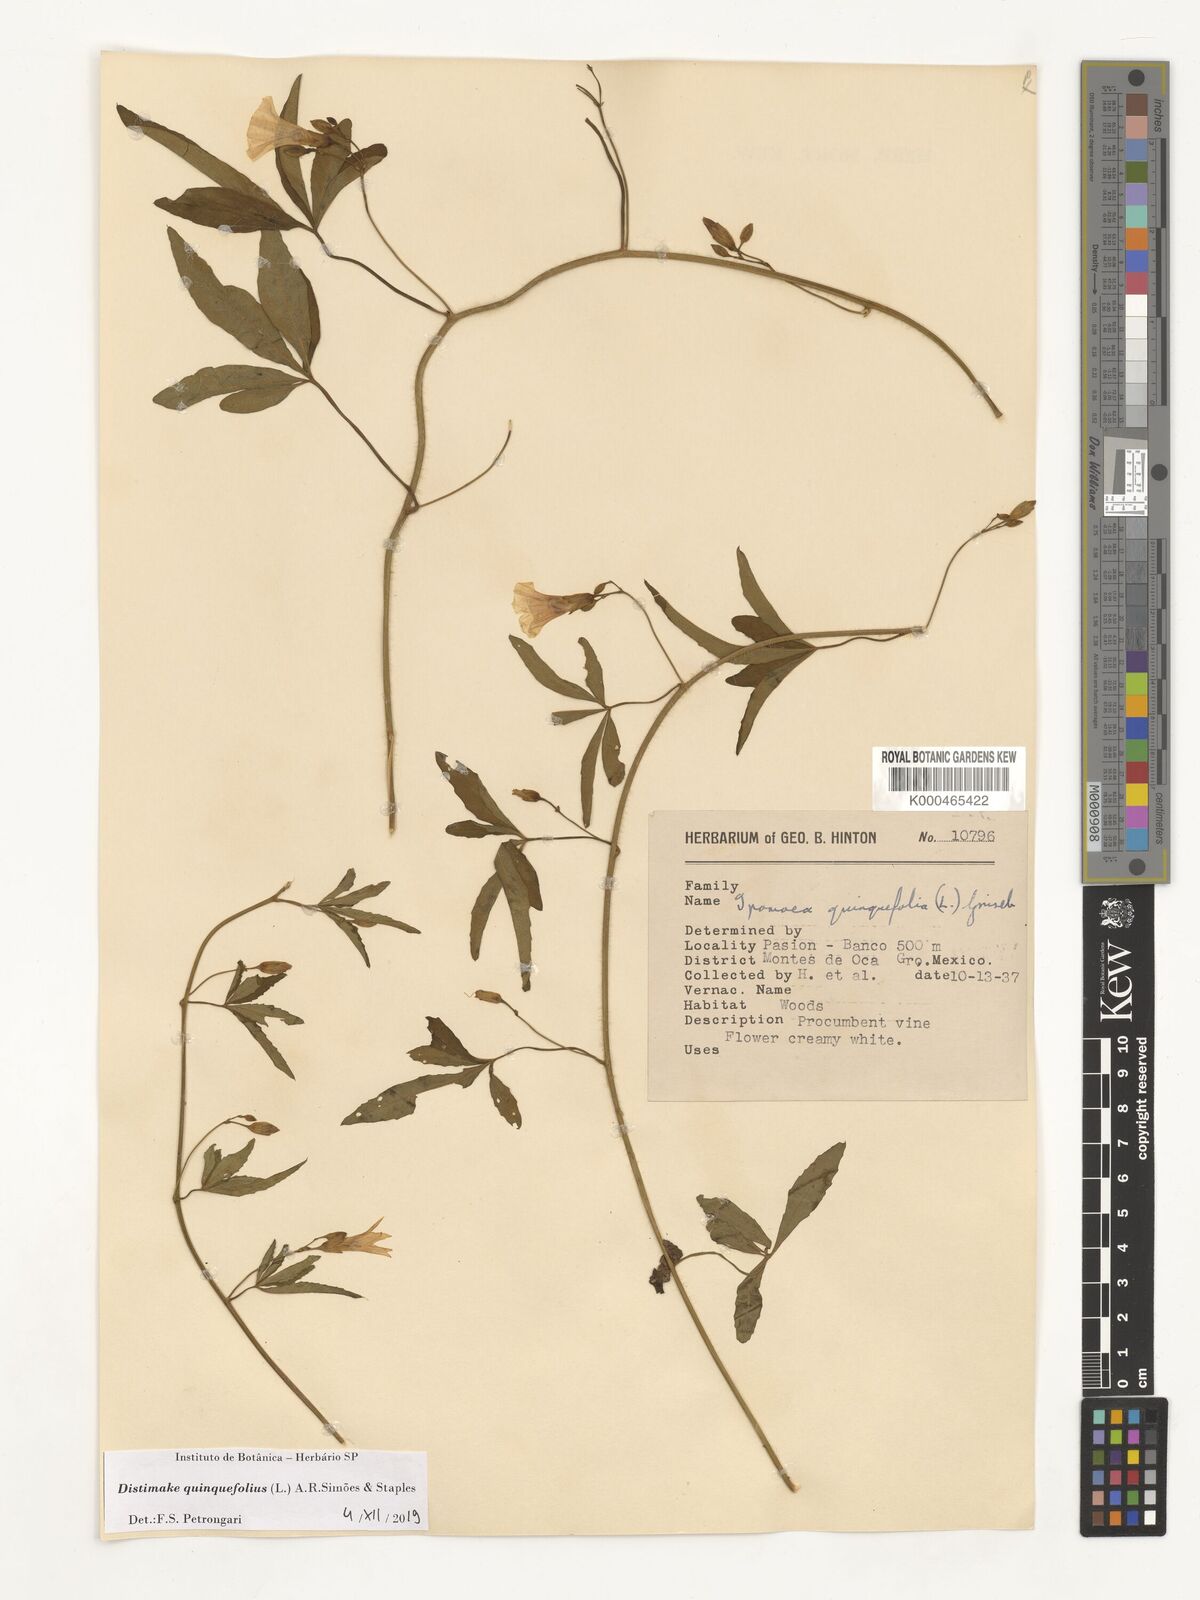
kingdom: Plantae
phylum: Tracheophyta
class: Magnoliopsida
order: Solanales
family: Convolvulaceae
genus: Distimake
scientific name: Distimake quinquefolius
